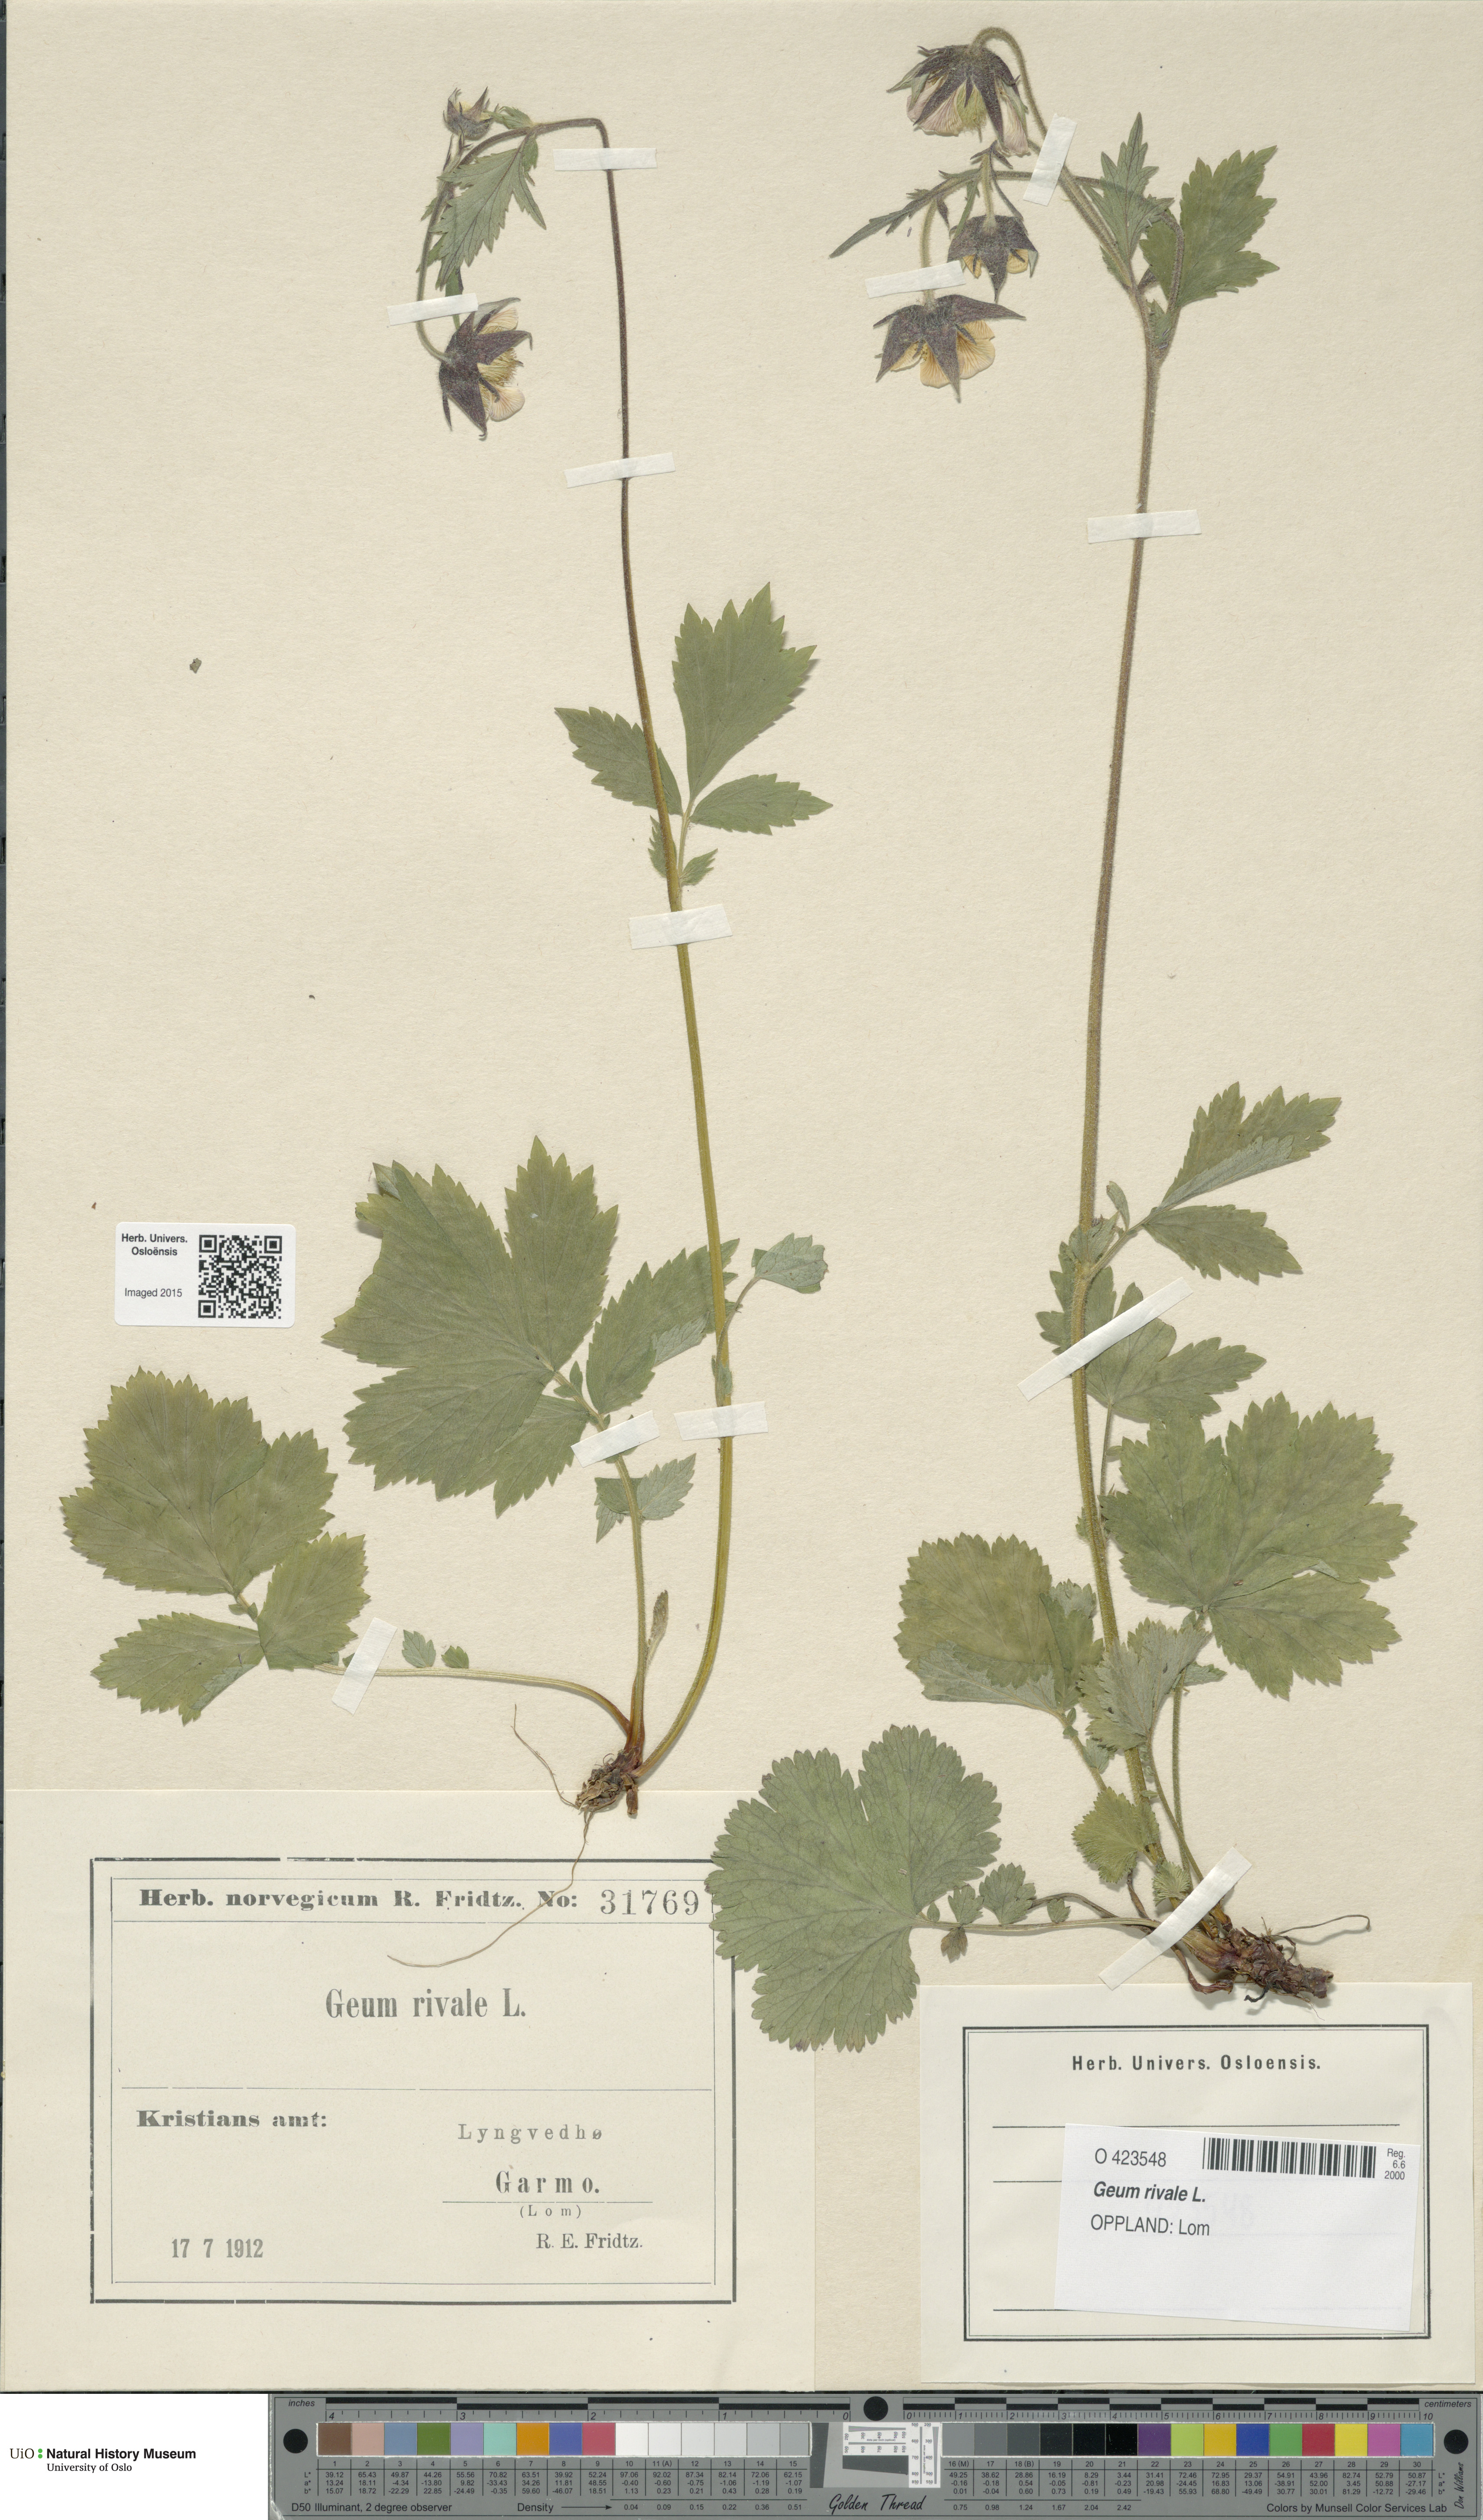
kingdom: Plantae
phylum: Tracheophyta
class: Magnoliopsida
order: Rosales
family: Rosaceae
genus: Geum
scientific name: Geum rivale
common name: Water avens
